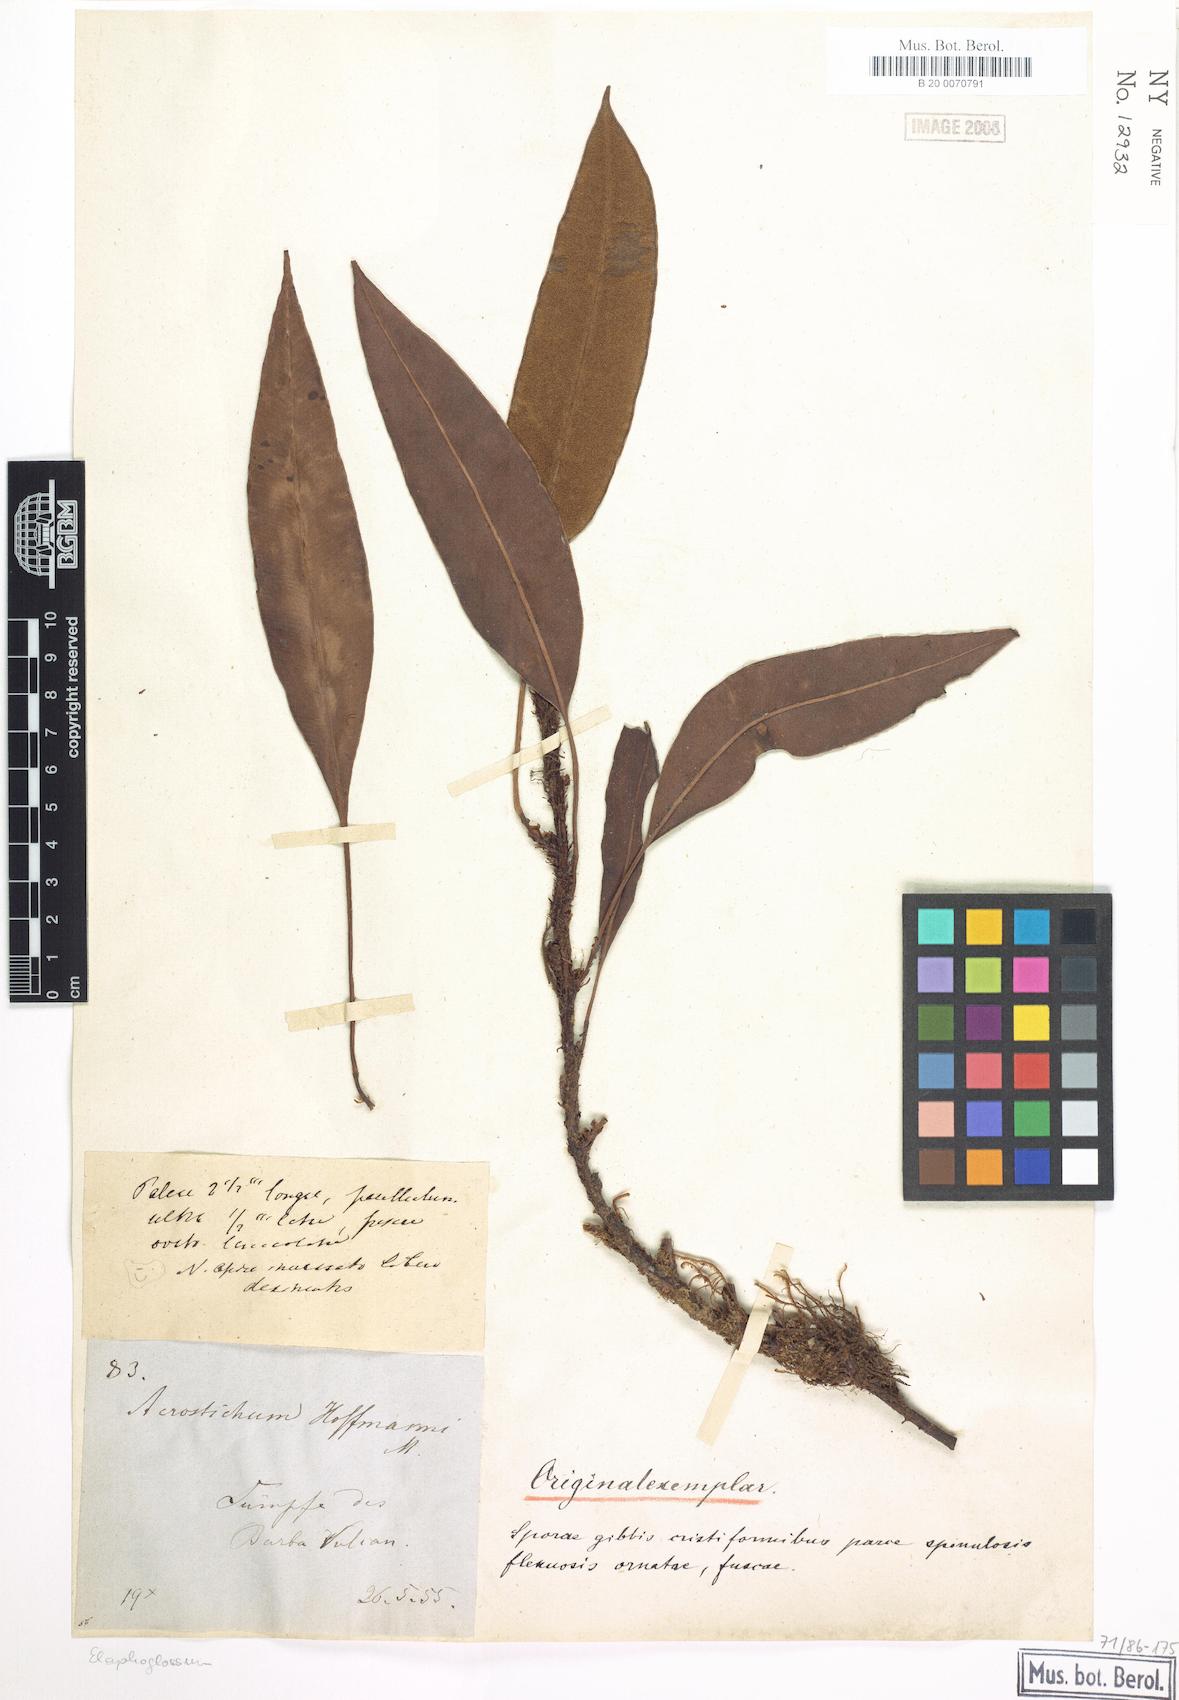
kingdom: Plantae
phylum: Tracheophyta
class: Polypodiopsida
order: Polypodiales
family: Dryopteridaceae
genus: Elaphoglossum
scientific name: Elaphoglossum hoffmannii
